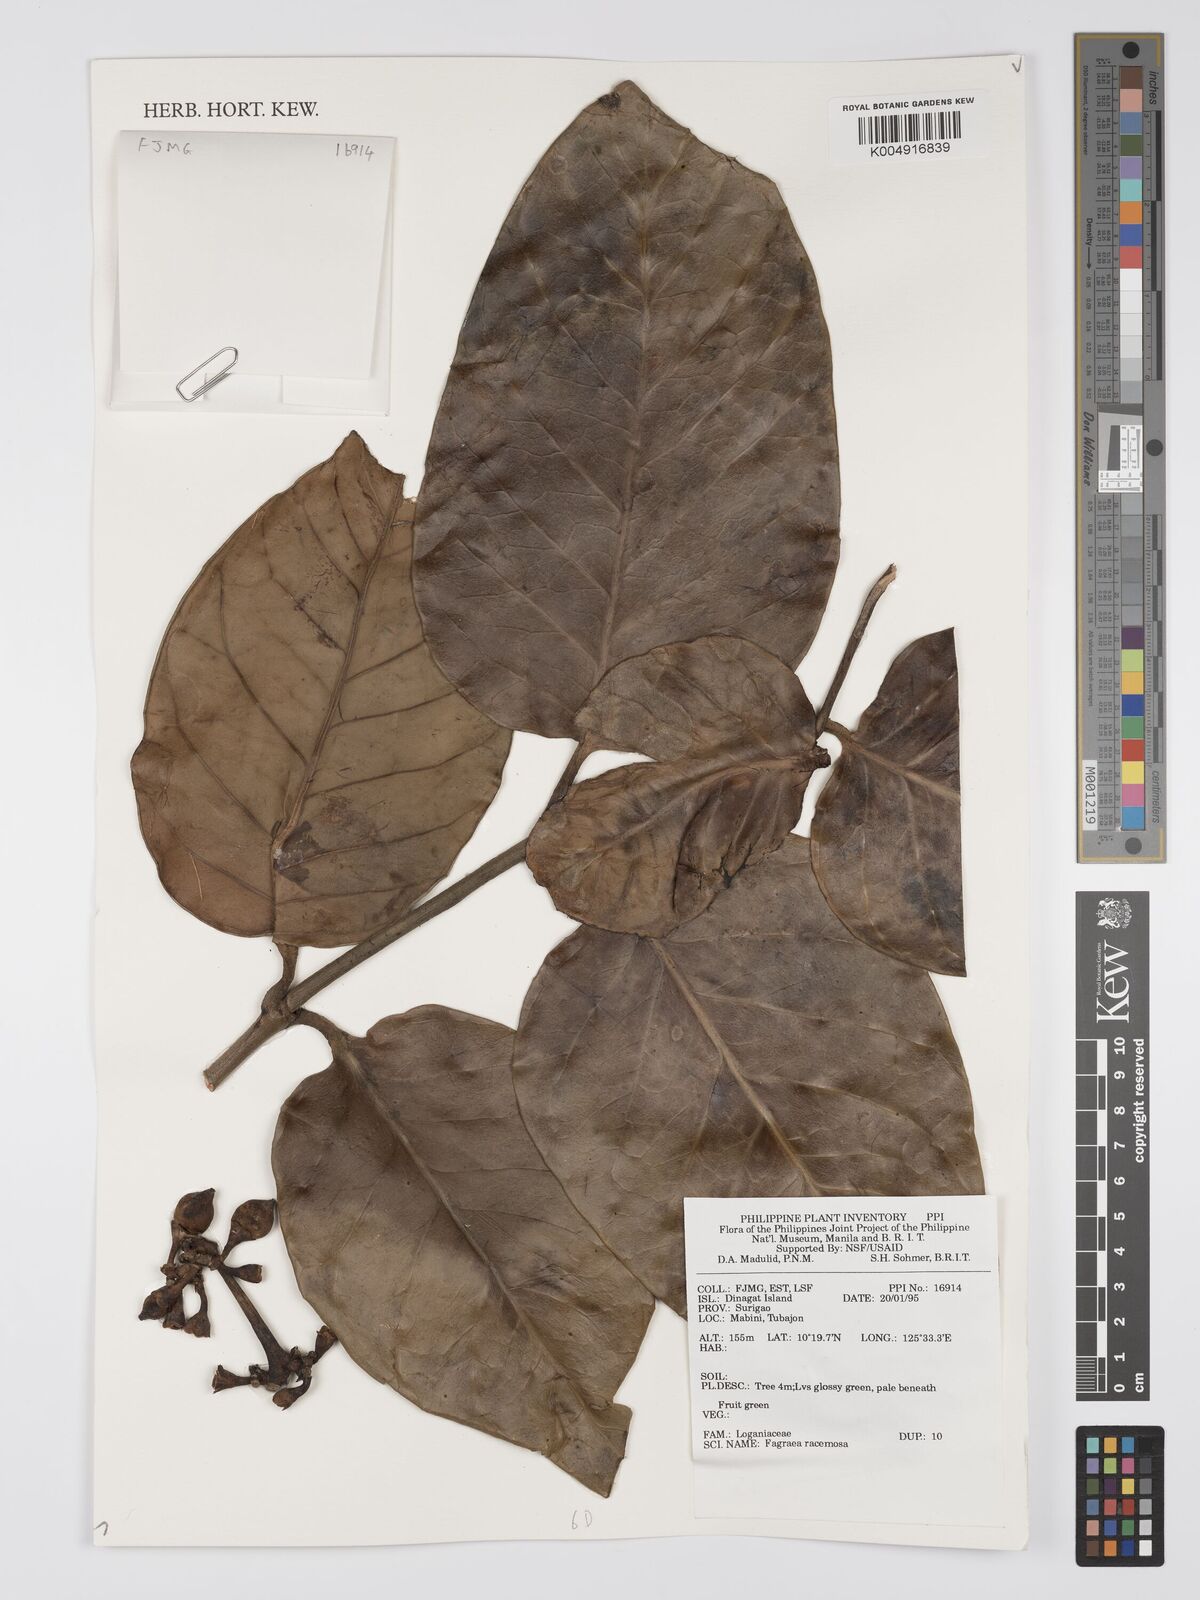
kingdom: Plantae
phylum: Tracheophyta
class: Magnoliopsida
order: Gentianales
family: Gentianaceae
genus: Utania
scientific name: Utania racemosa
